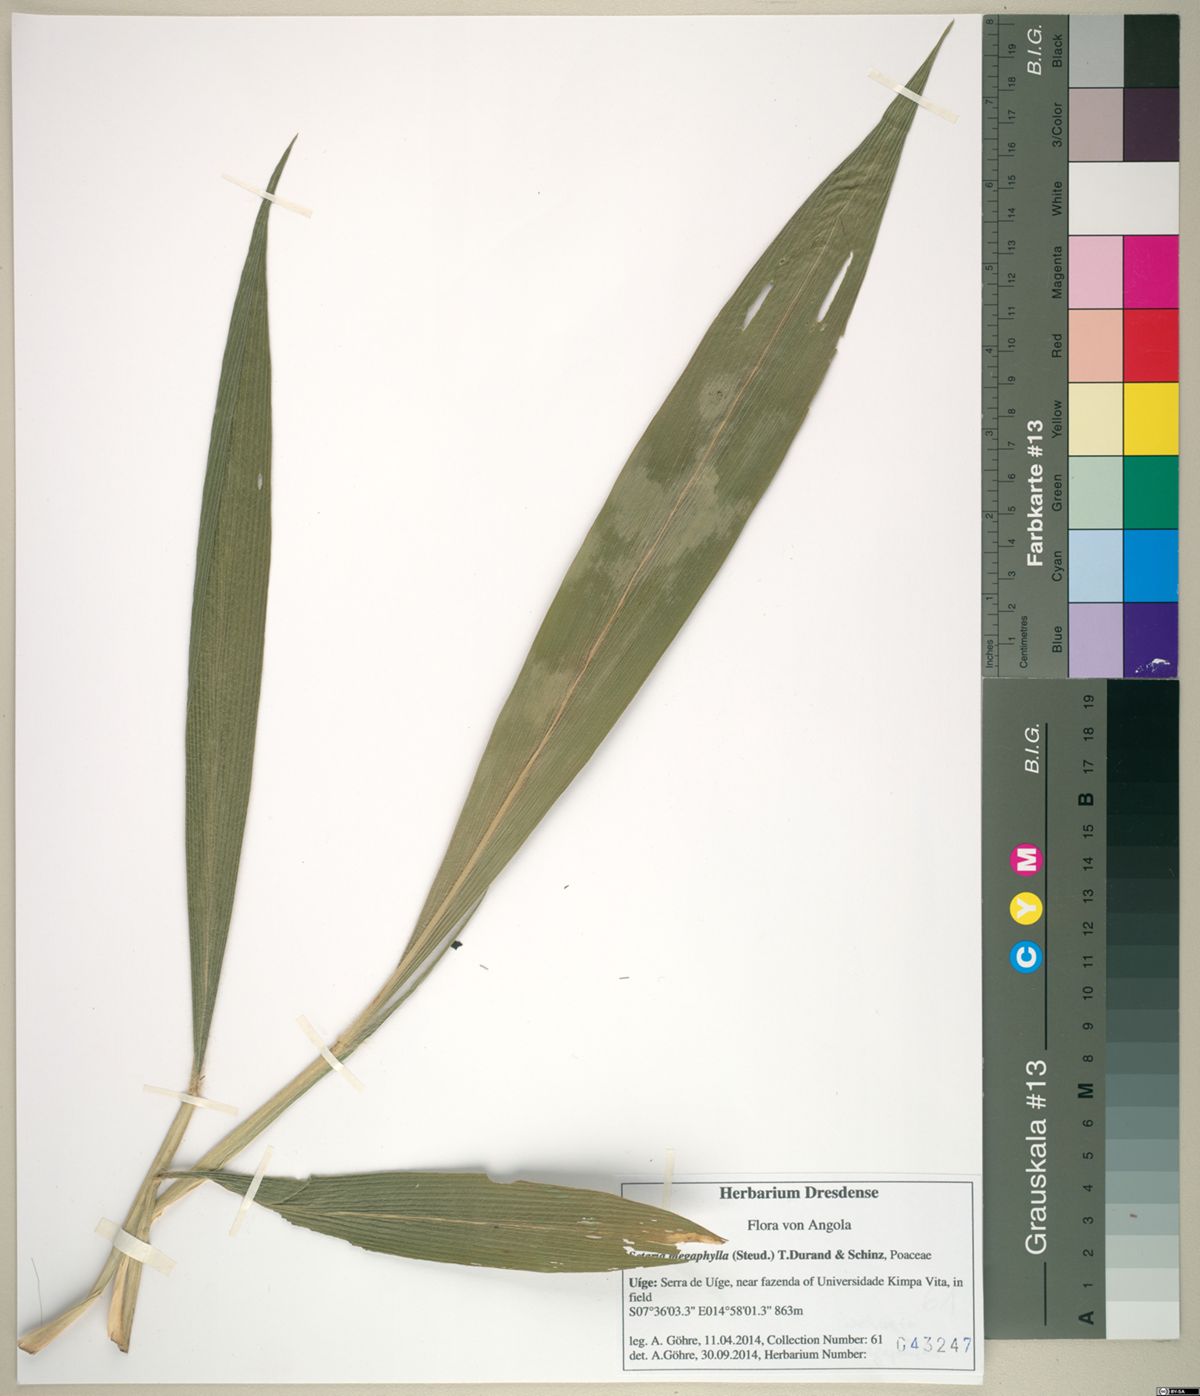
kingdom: Plantae
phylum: Tracheophyta
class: Liliopsida
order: Poales
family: Poaceae
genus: Setaria
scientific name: Setaria megaphylla
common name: Bigleaf bristlegrass
